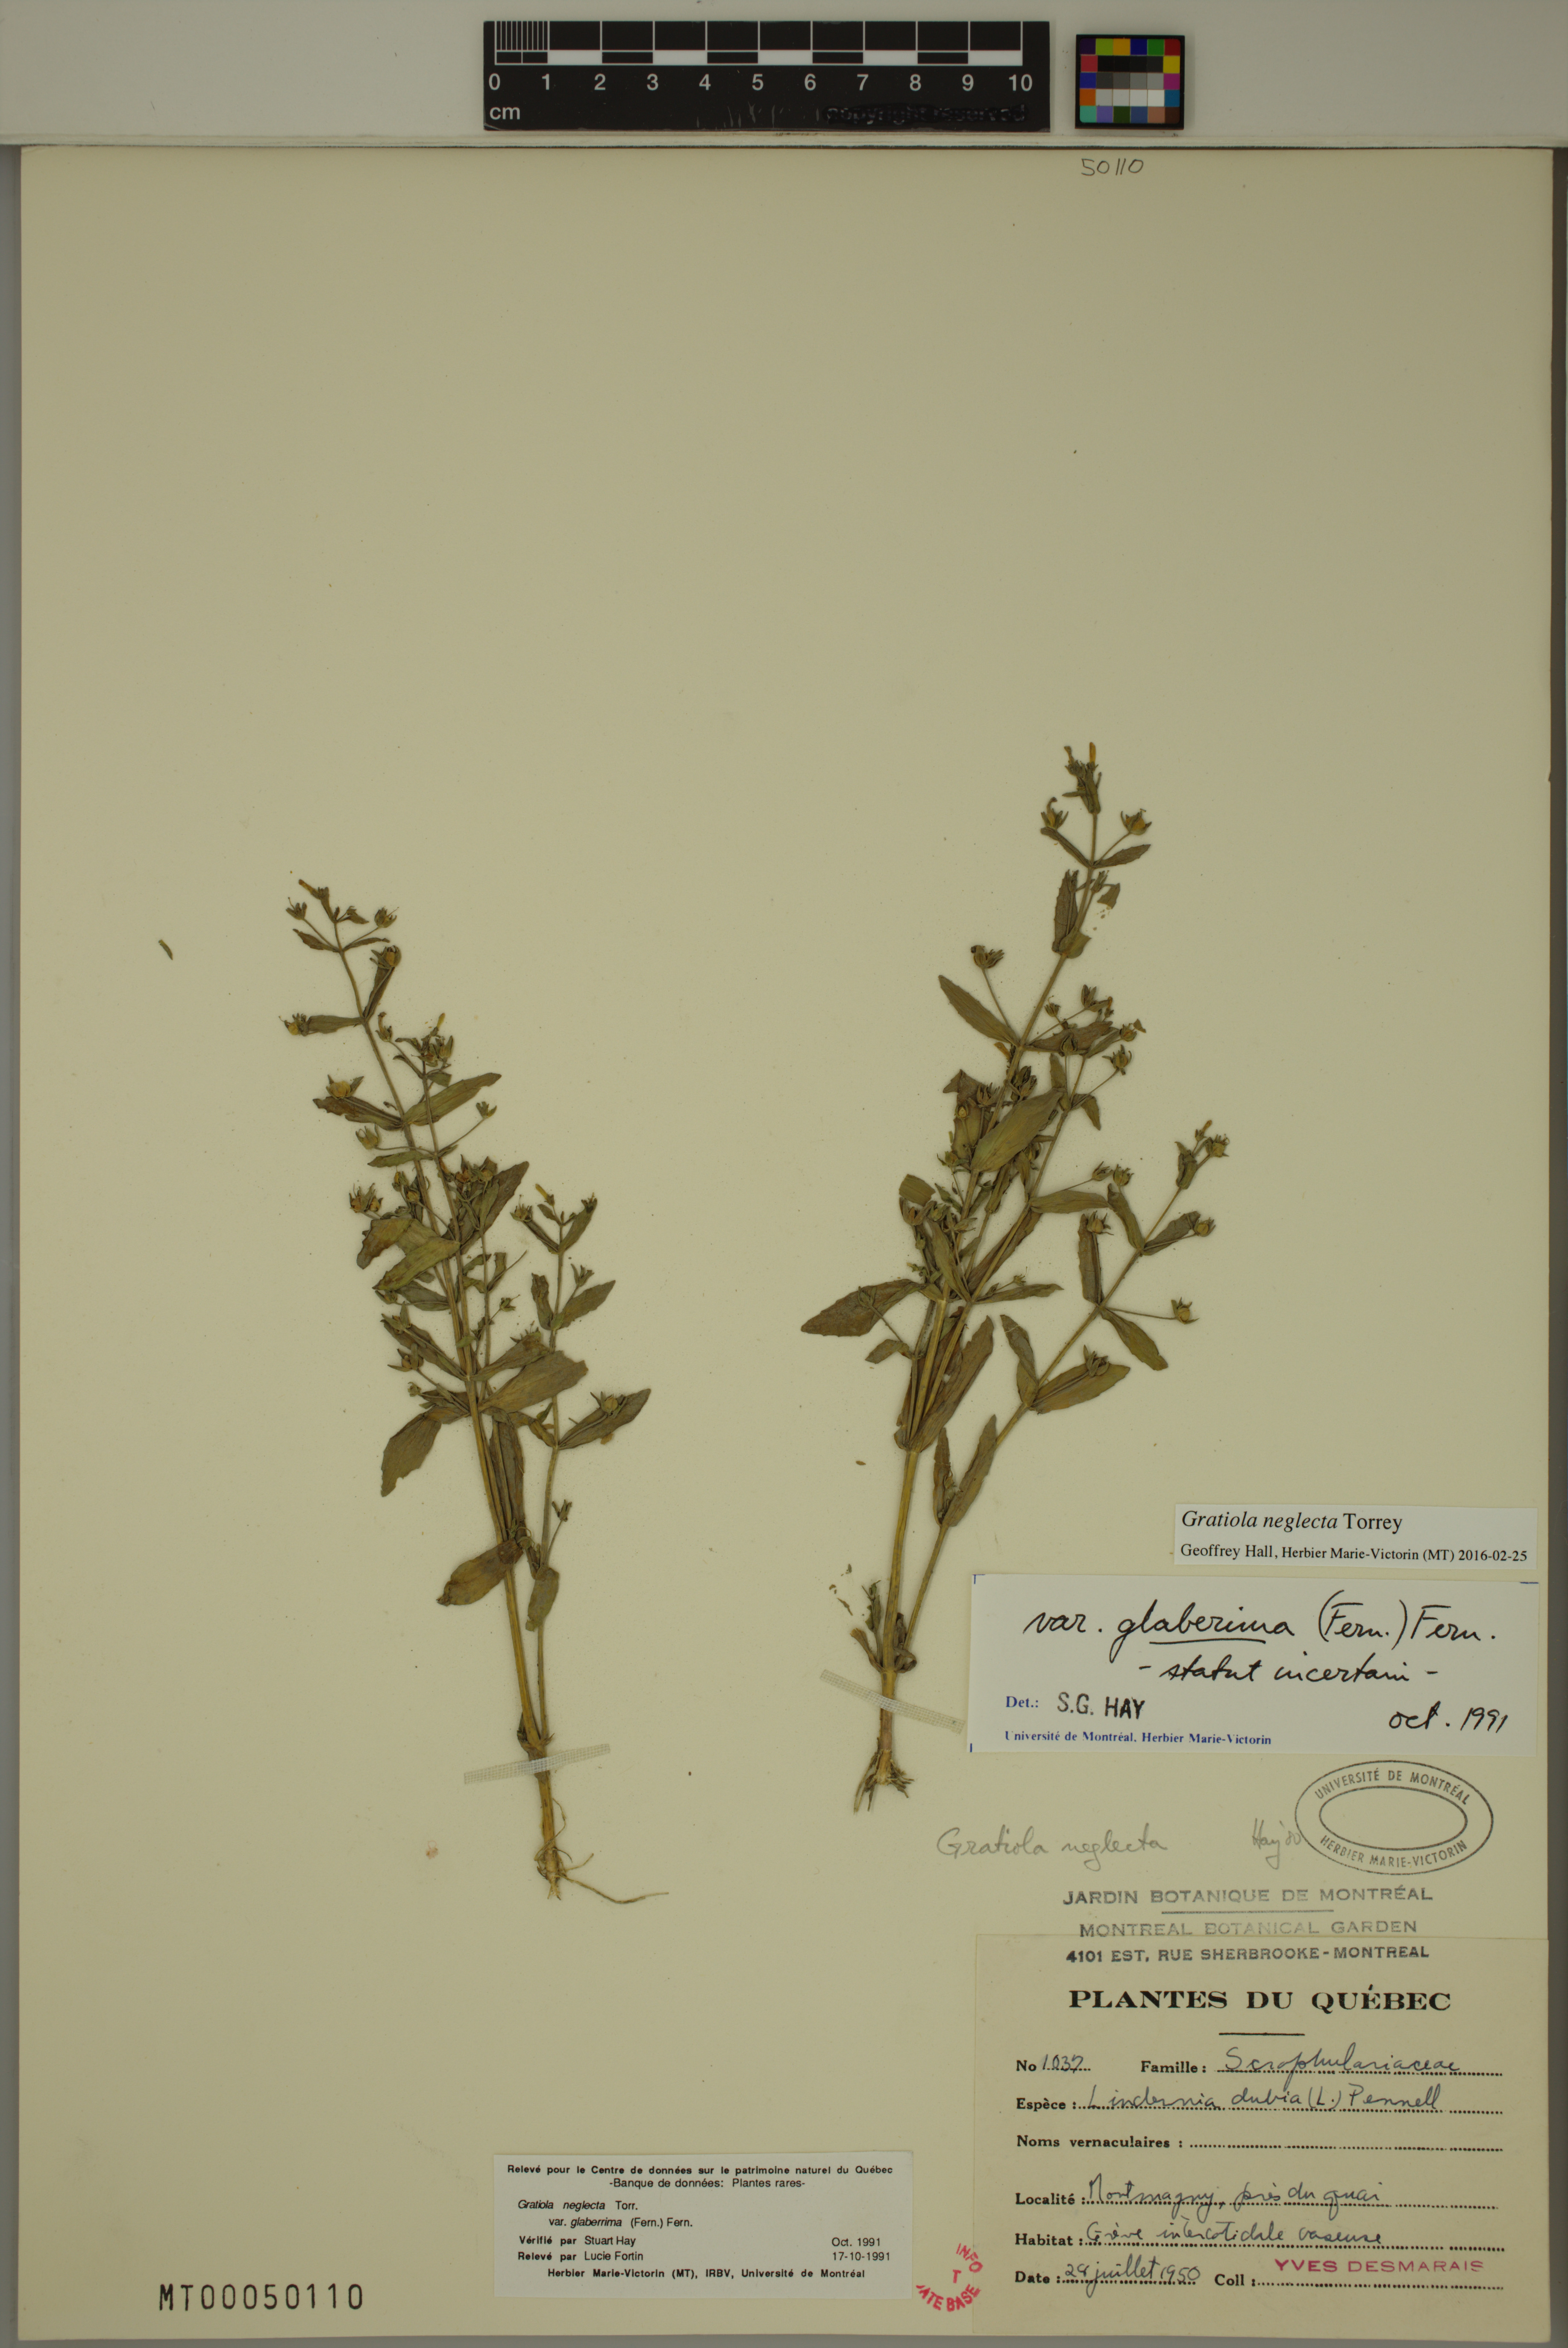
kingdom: Plantae
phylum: Tracheophyta
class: Magnoliopsida
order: Lamiales
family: Plantaginaceae
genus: Gratiola
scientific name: Gratiola neglecta
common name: American hedge-hyssop
